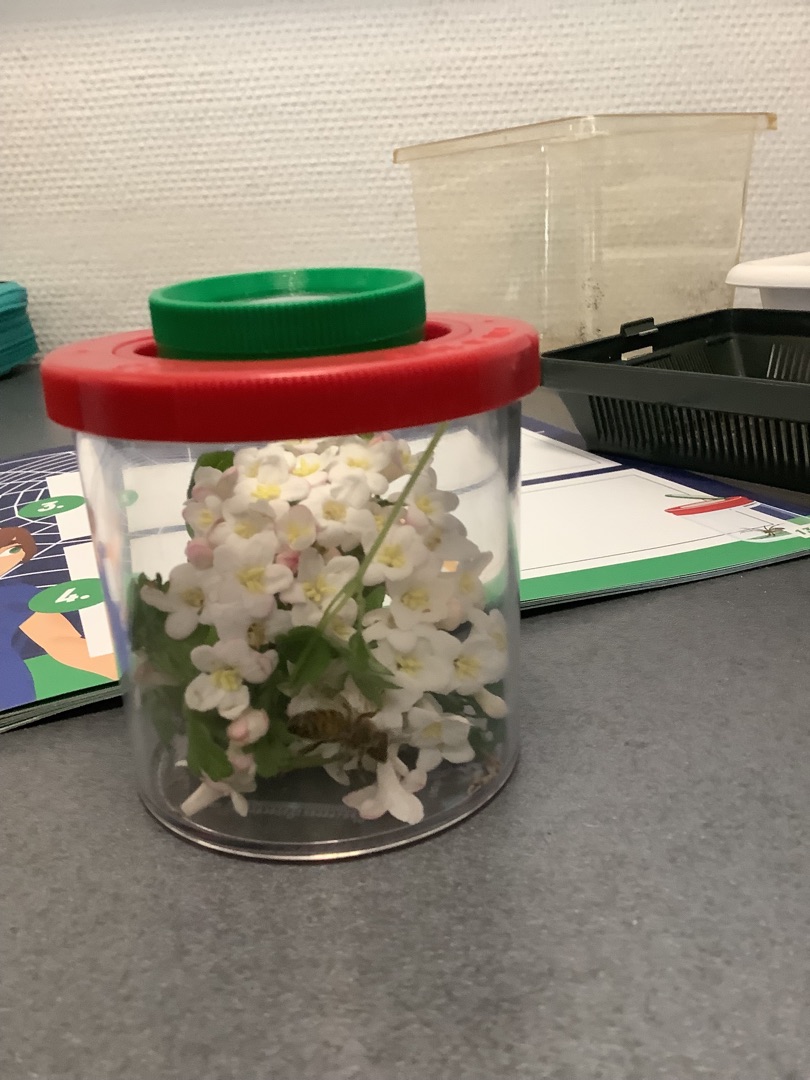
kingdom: Animalia
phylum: Arthropoda
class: Insecta
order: Lepidoptera
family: Choreutidae
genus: Anthophila
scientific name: Anthophila
